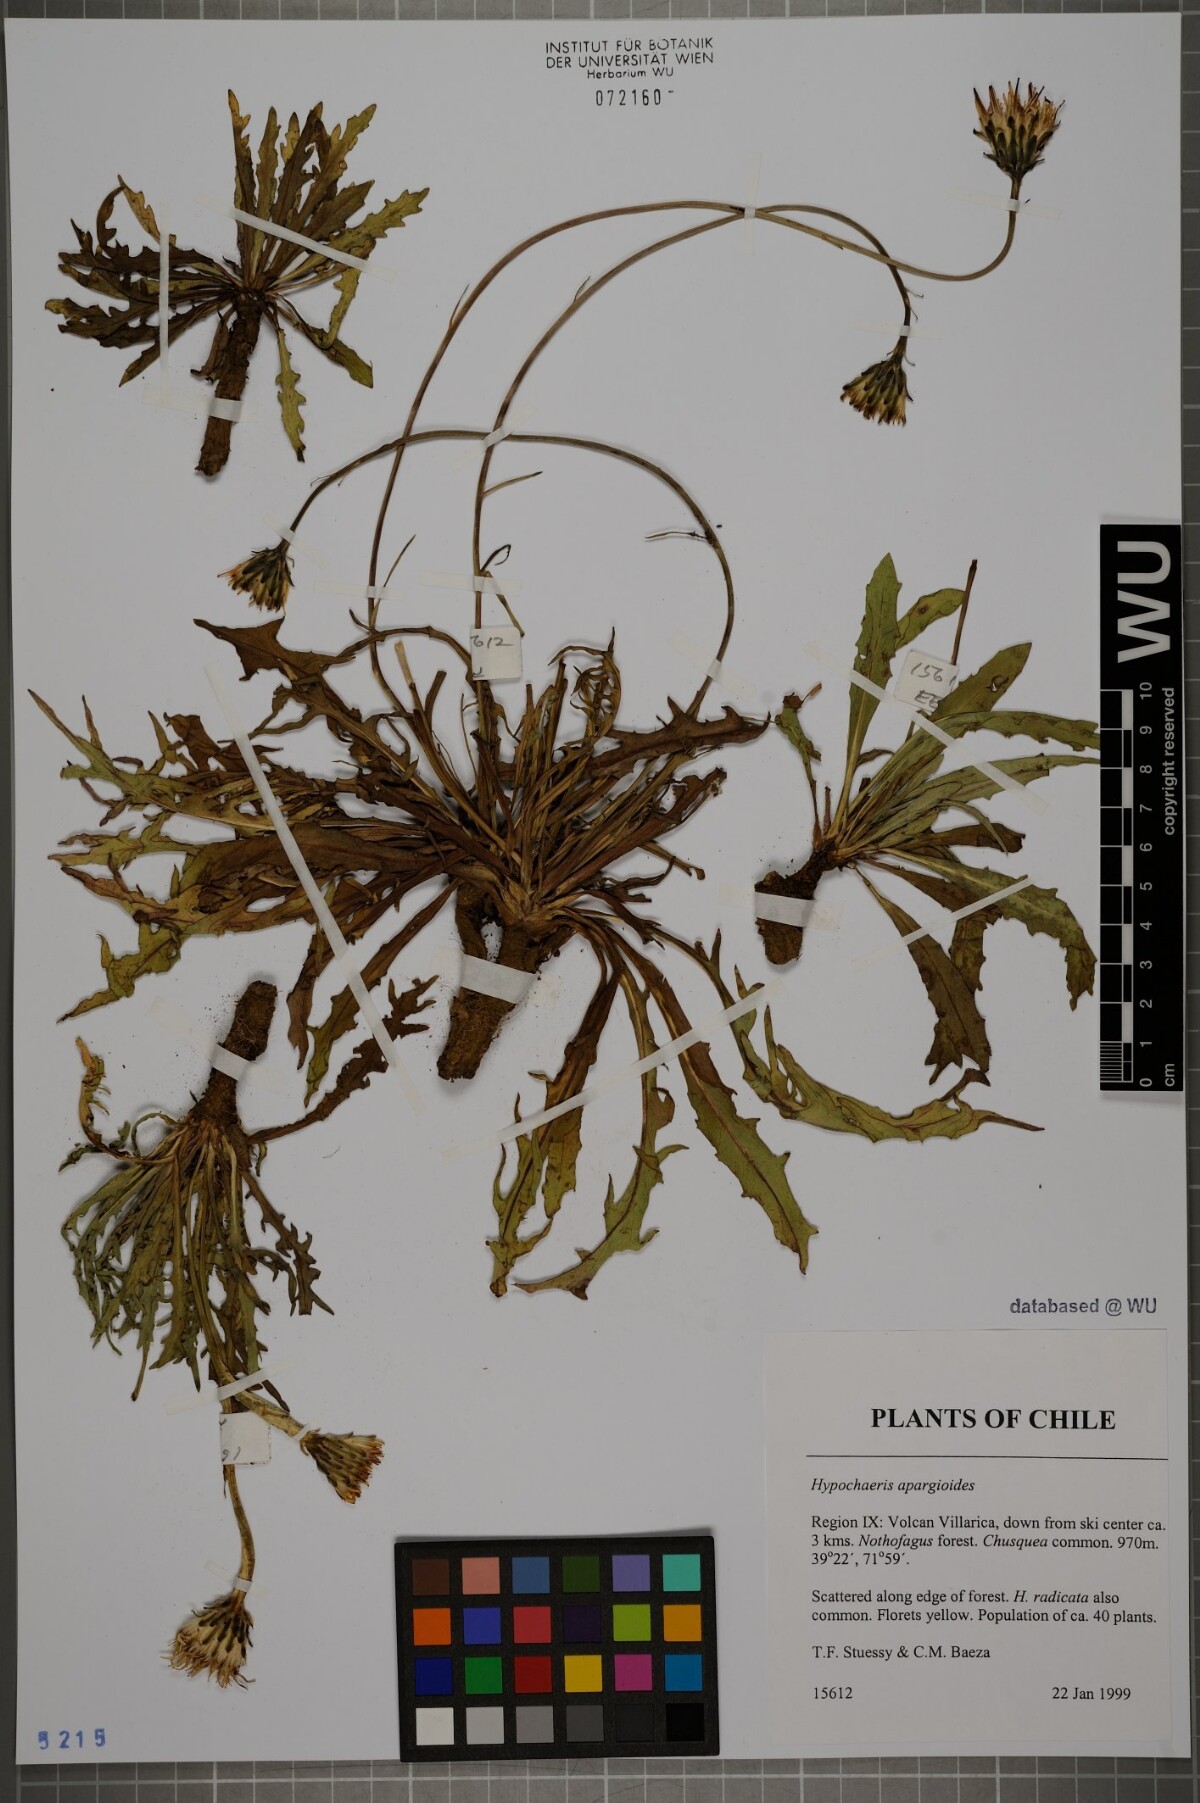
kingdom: Plantae
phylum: Tracheophyta
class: Magnoliopsida
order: Asterales
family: Asteraceae
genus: Hypochaeris
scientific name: Hypochaeris apargioides
